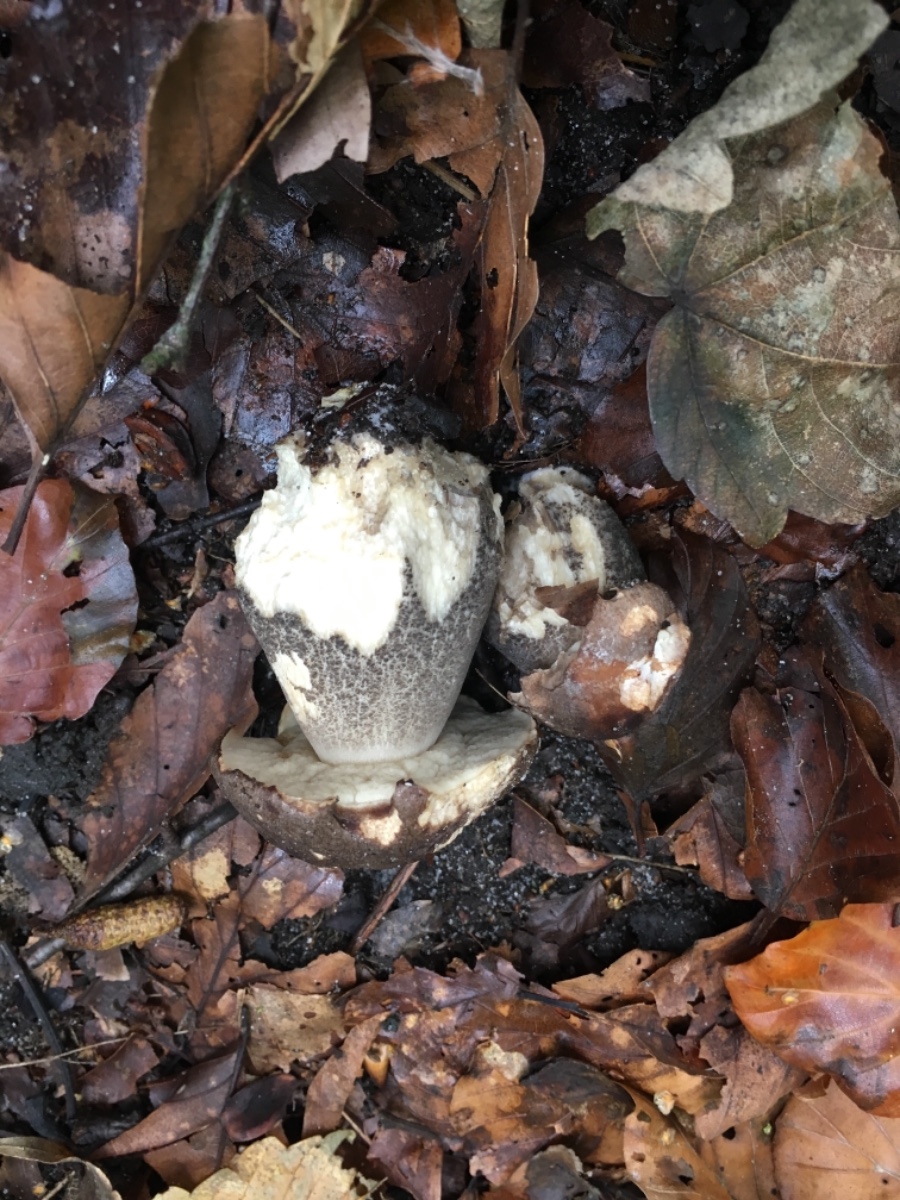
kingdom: Fungi
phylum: Basidiomycota
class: Agaricomycetes
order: Boletales
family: Boletaceae
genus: Leccinum
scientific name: Leccinum scabrum
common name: brun skælrørhat
